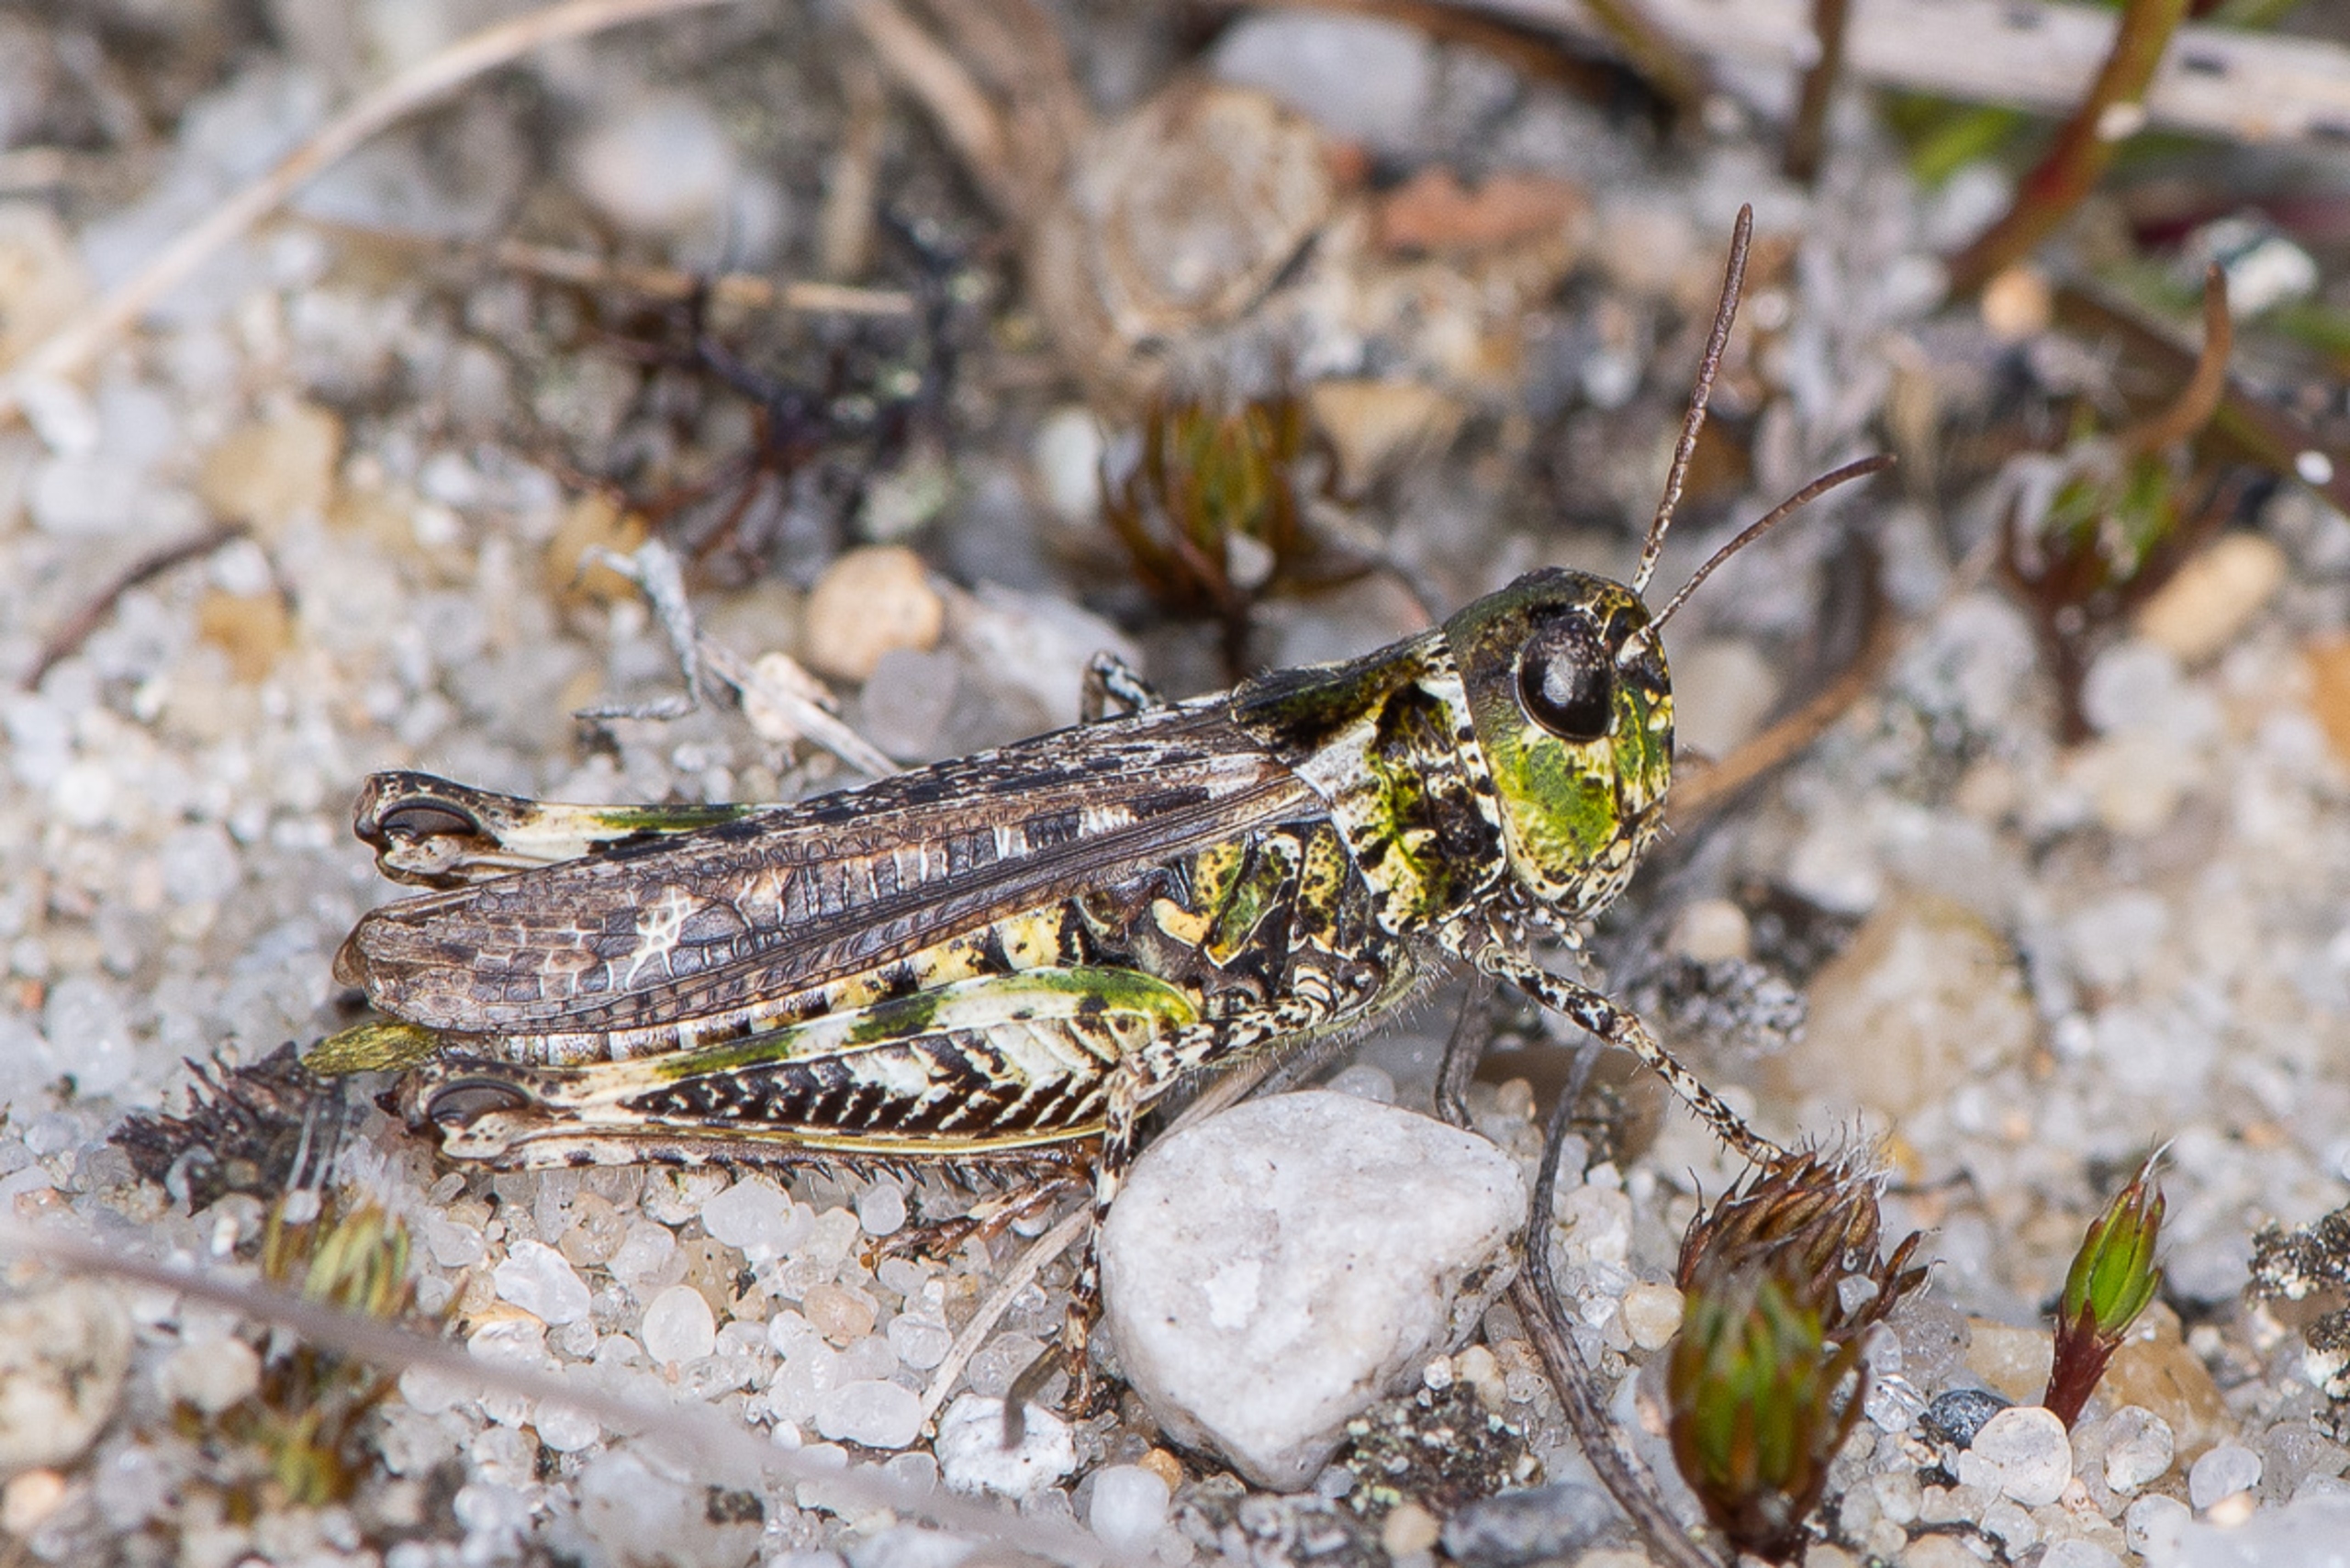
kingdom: Animalia
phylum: Arthropoda
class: Insecta
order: Orthoptera
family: Acrididae
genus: Myrmeleotettix
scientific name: Myrmeleotettix maculatus
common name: Køllegræshoppe
